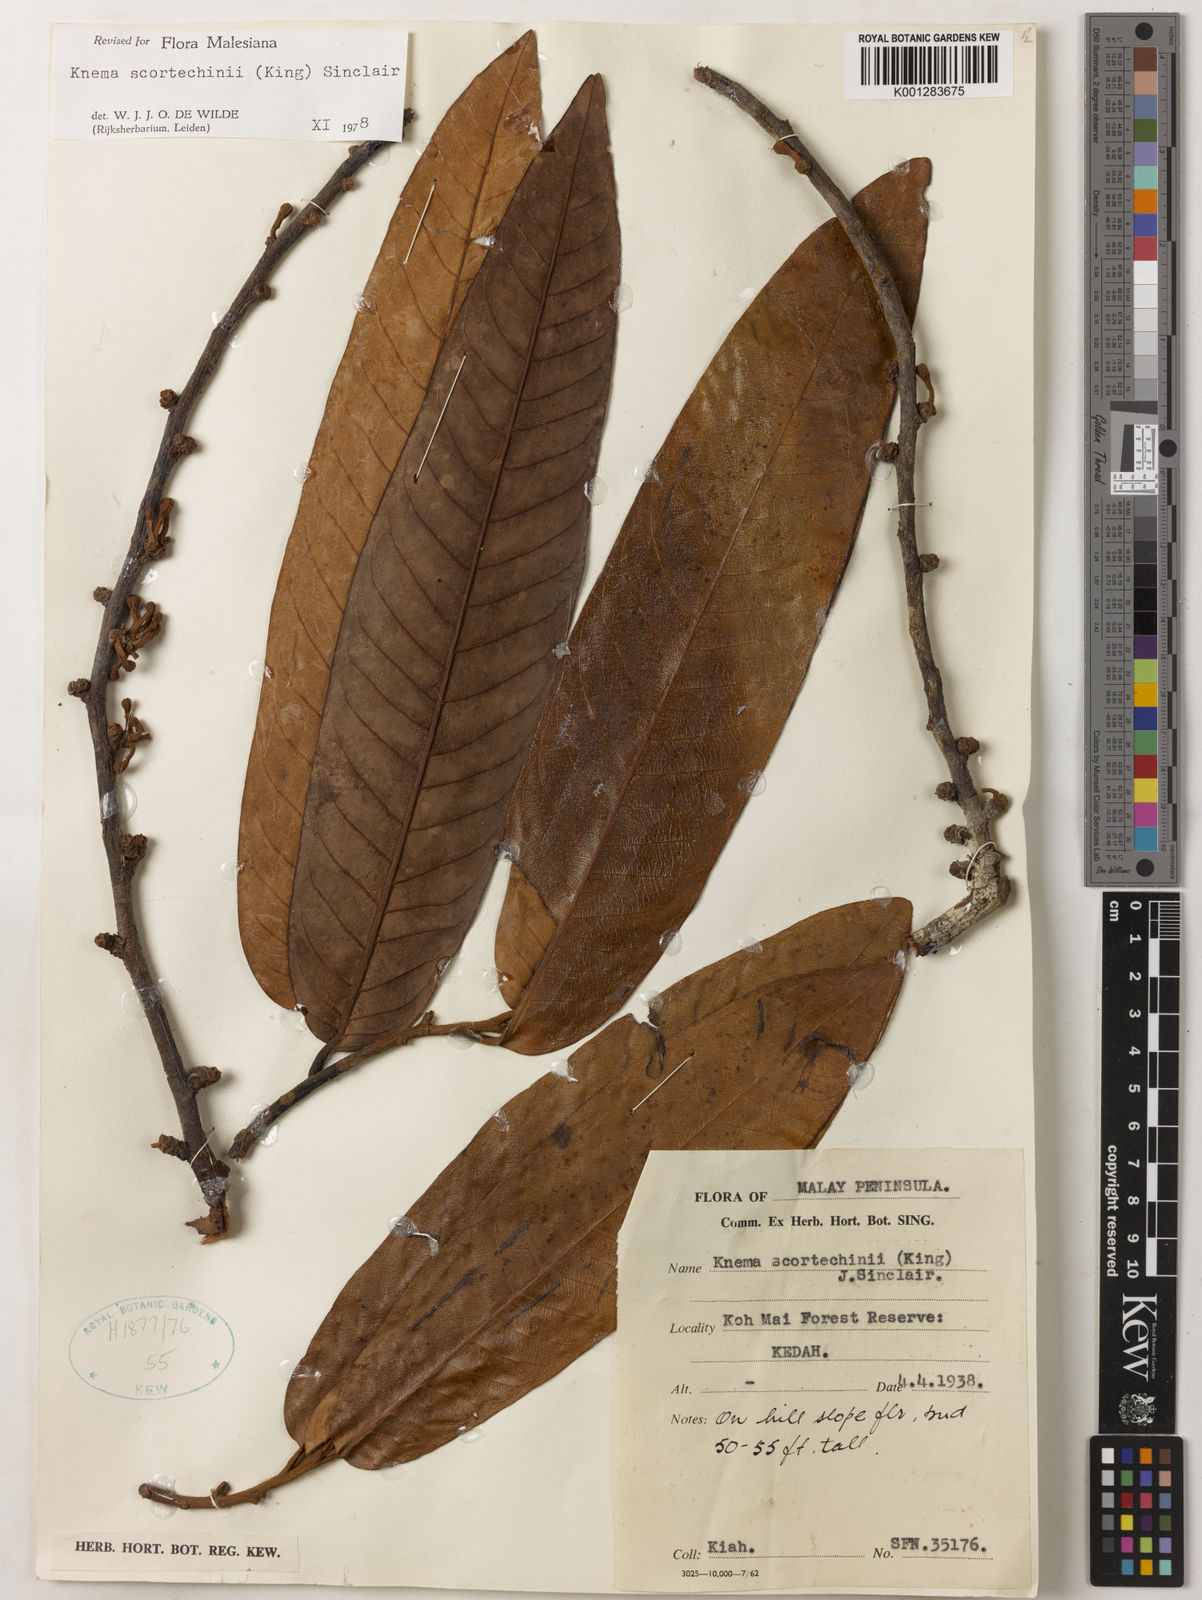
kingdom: Plantae
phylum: Tracheophyta
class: Magnoliopsida
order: Magnoliales
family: Myristicaceae
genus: Knema
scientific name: Knema scortechinii
